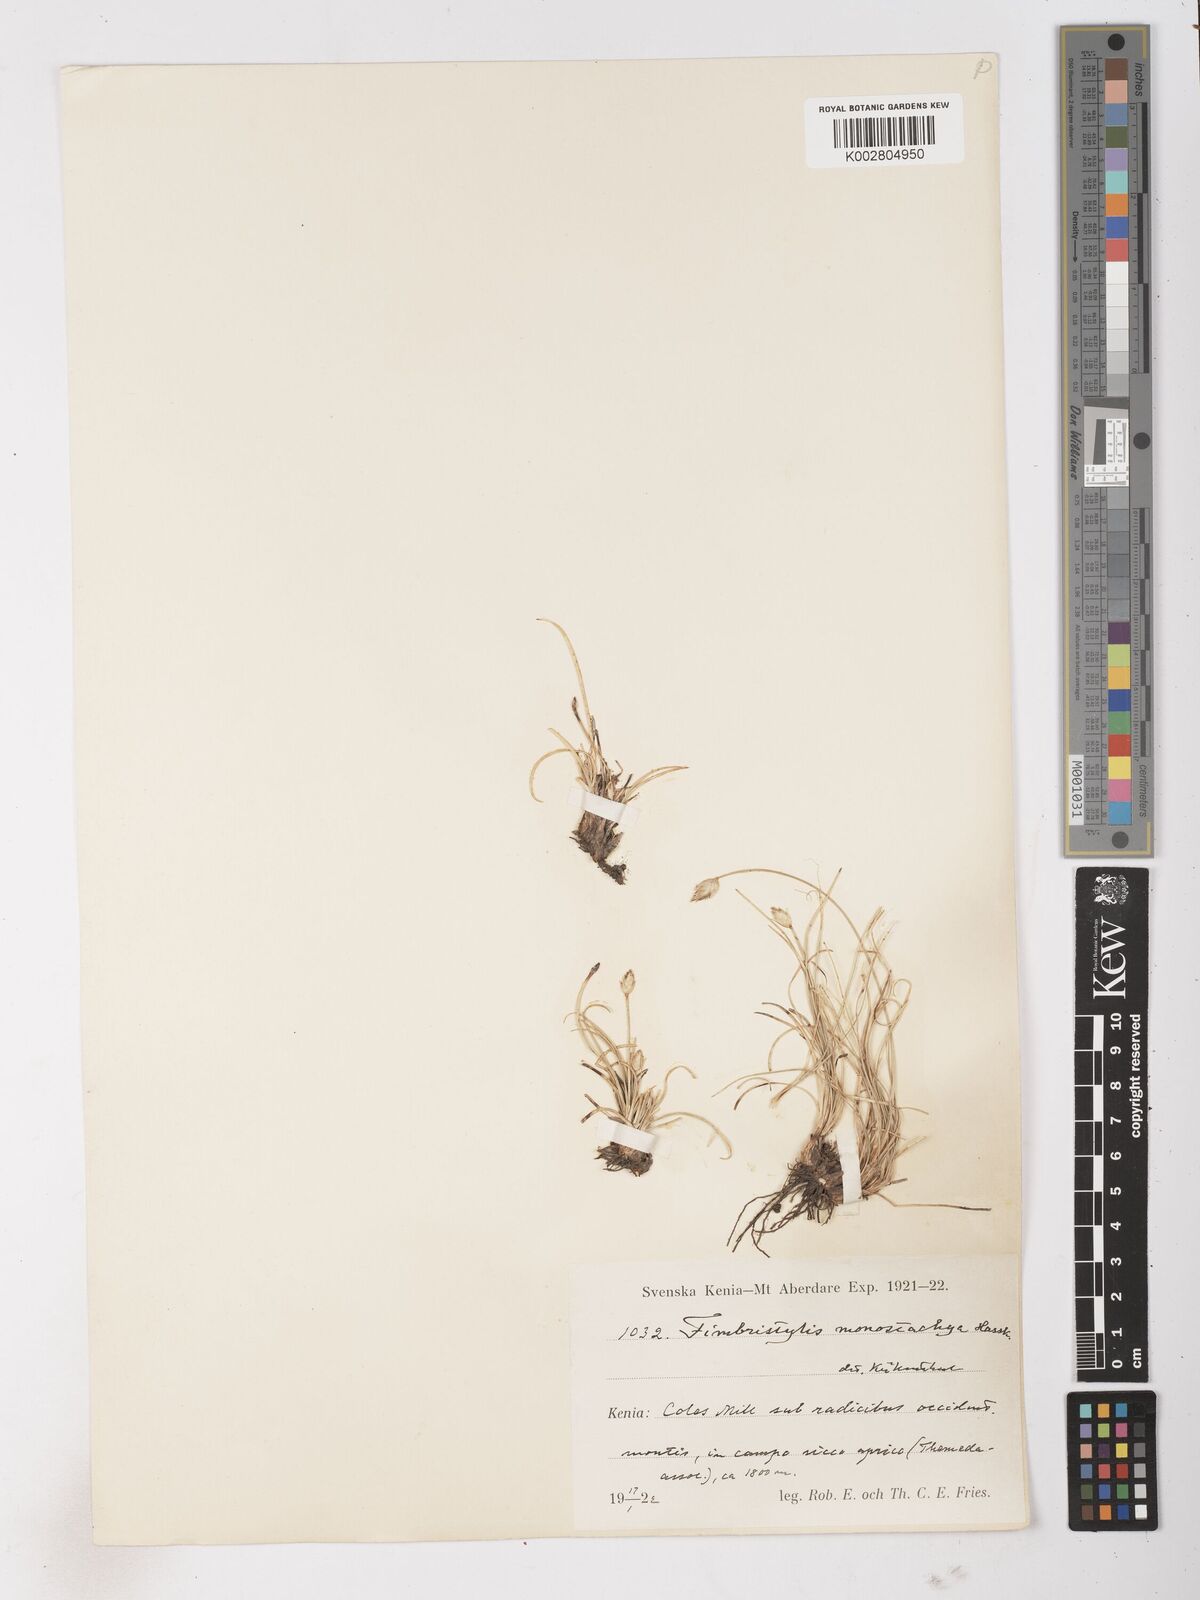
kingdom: Plantae
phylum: Tracheophyta
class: Liliopsida
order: Poales
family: Cyperaceae
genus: Abildgaardia
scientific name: Abildgaardia ovata
